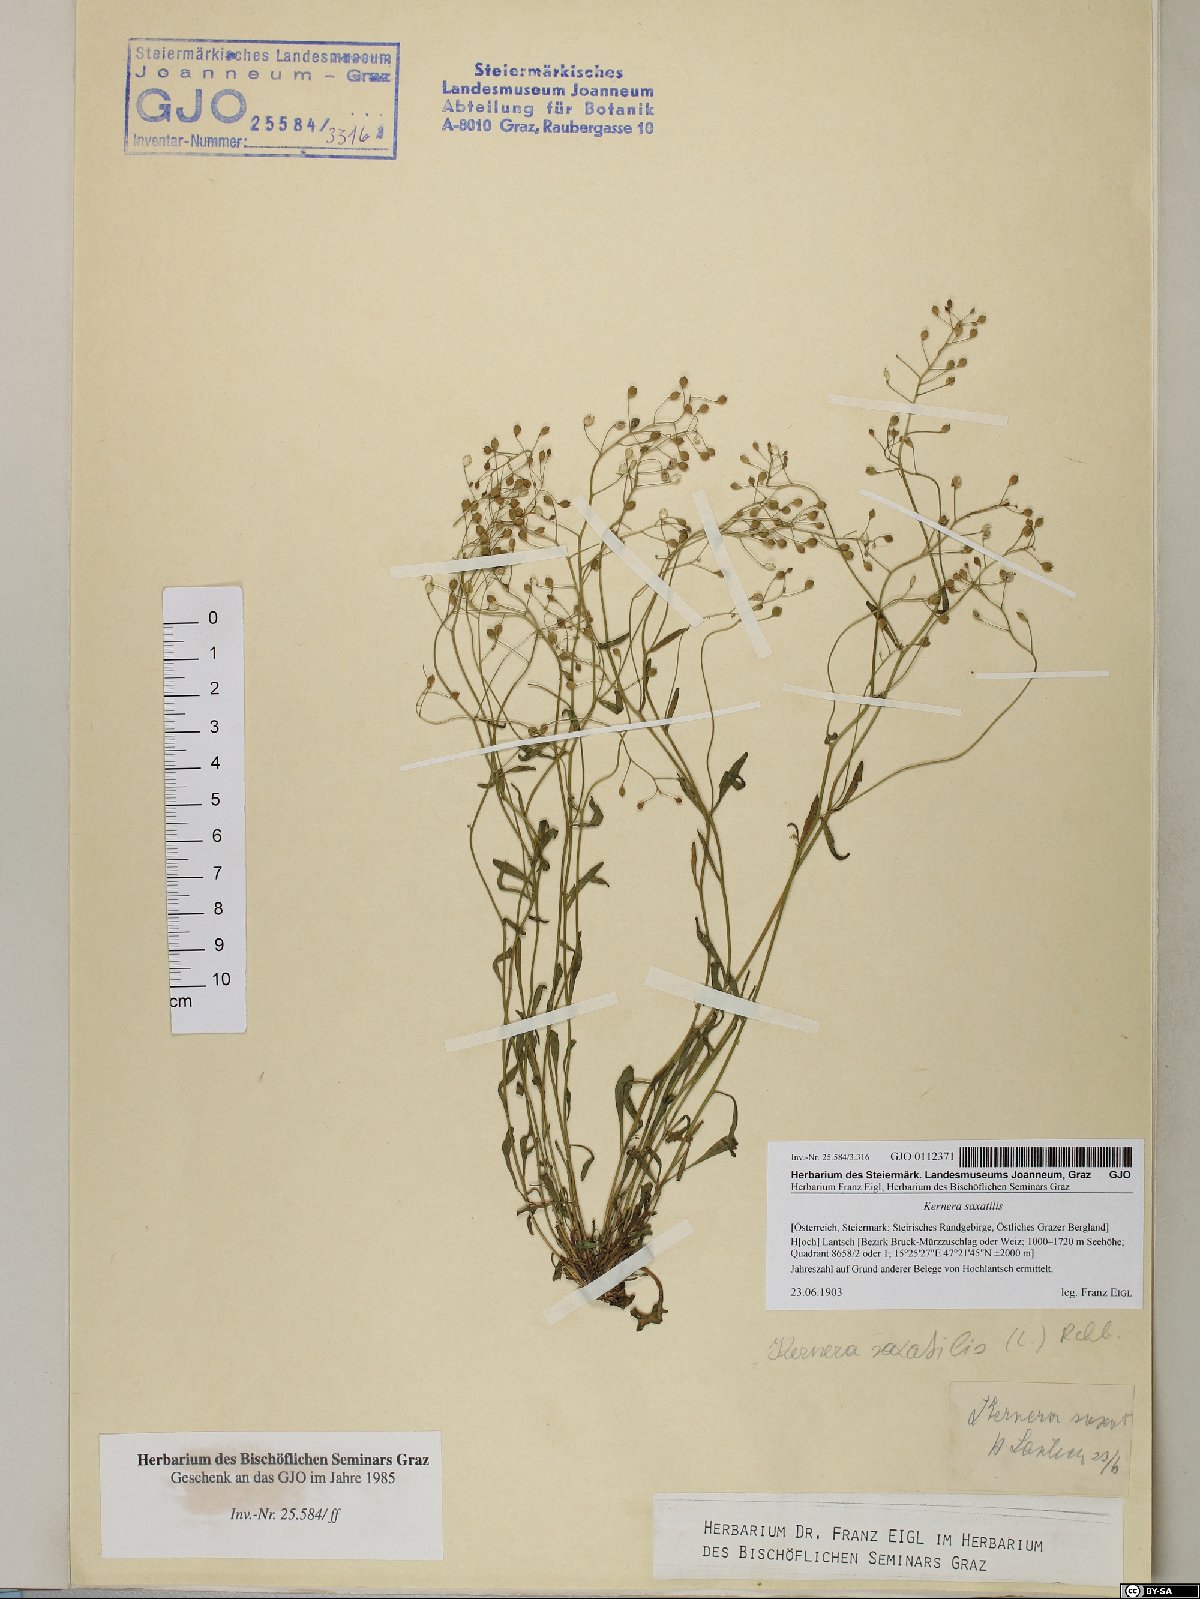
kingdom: Plantae
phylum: Tracheophyta
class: Magnoliopsida
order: Brassicales
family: Brassicaceae
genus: Kernera
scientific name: Kernera saxatilis
